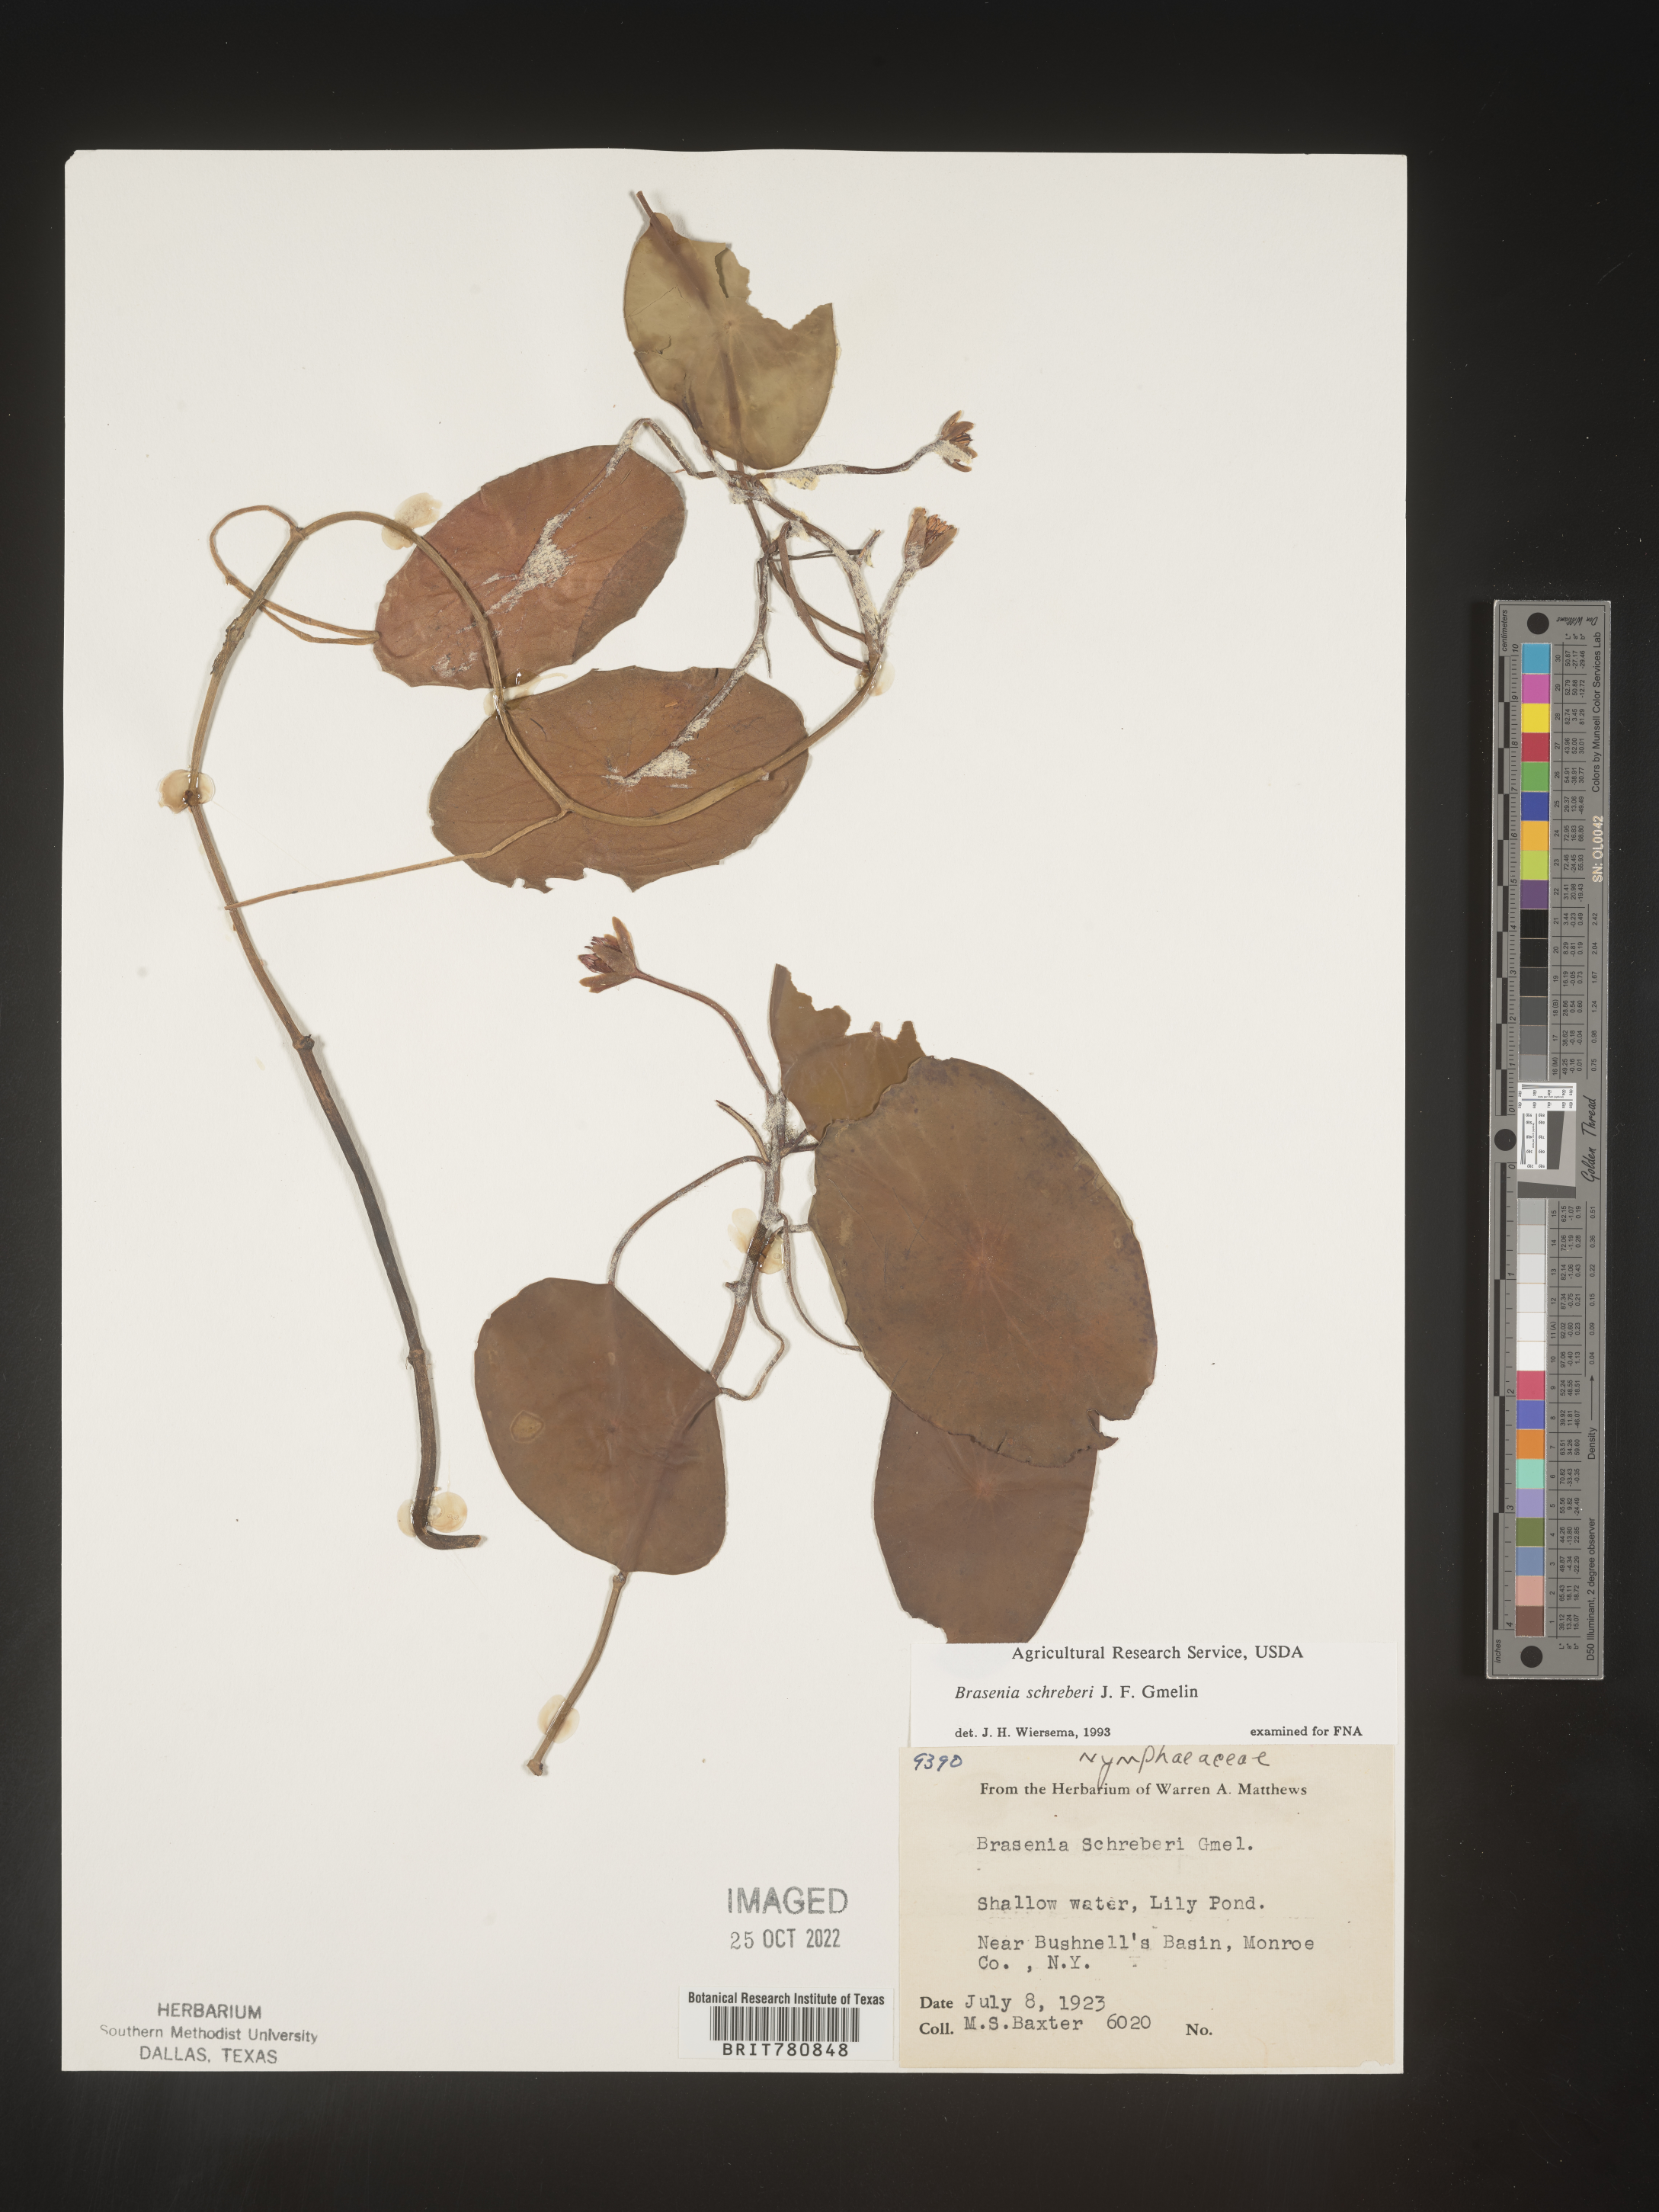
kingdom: Plantae
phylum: Tracheophyta
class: Magnoliopsida
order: Nymphaeales
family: Cabombaceae
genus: Brasenia
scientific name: Brasenia schreberi
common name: Water-shield
